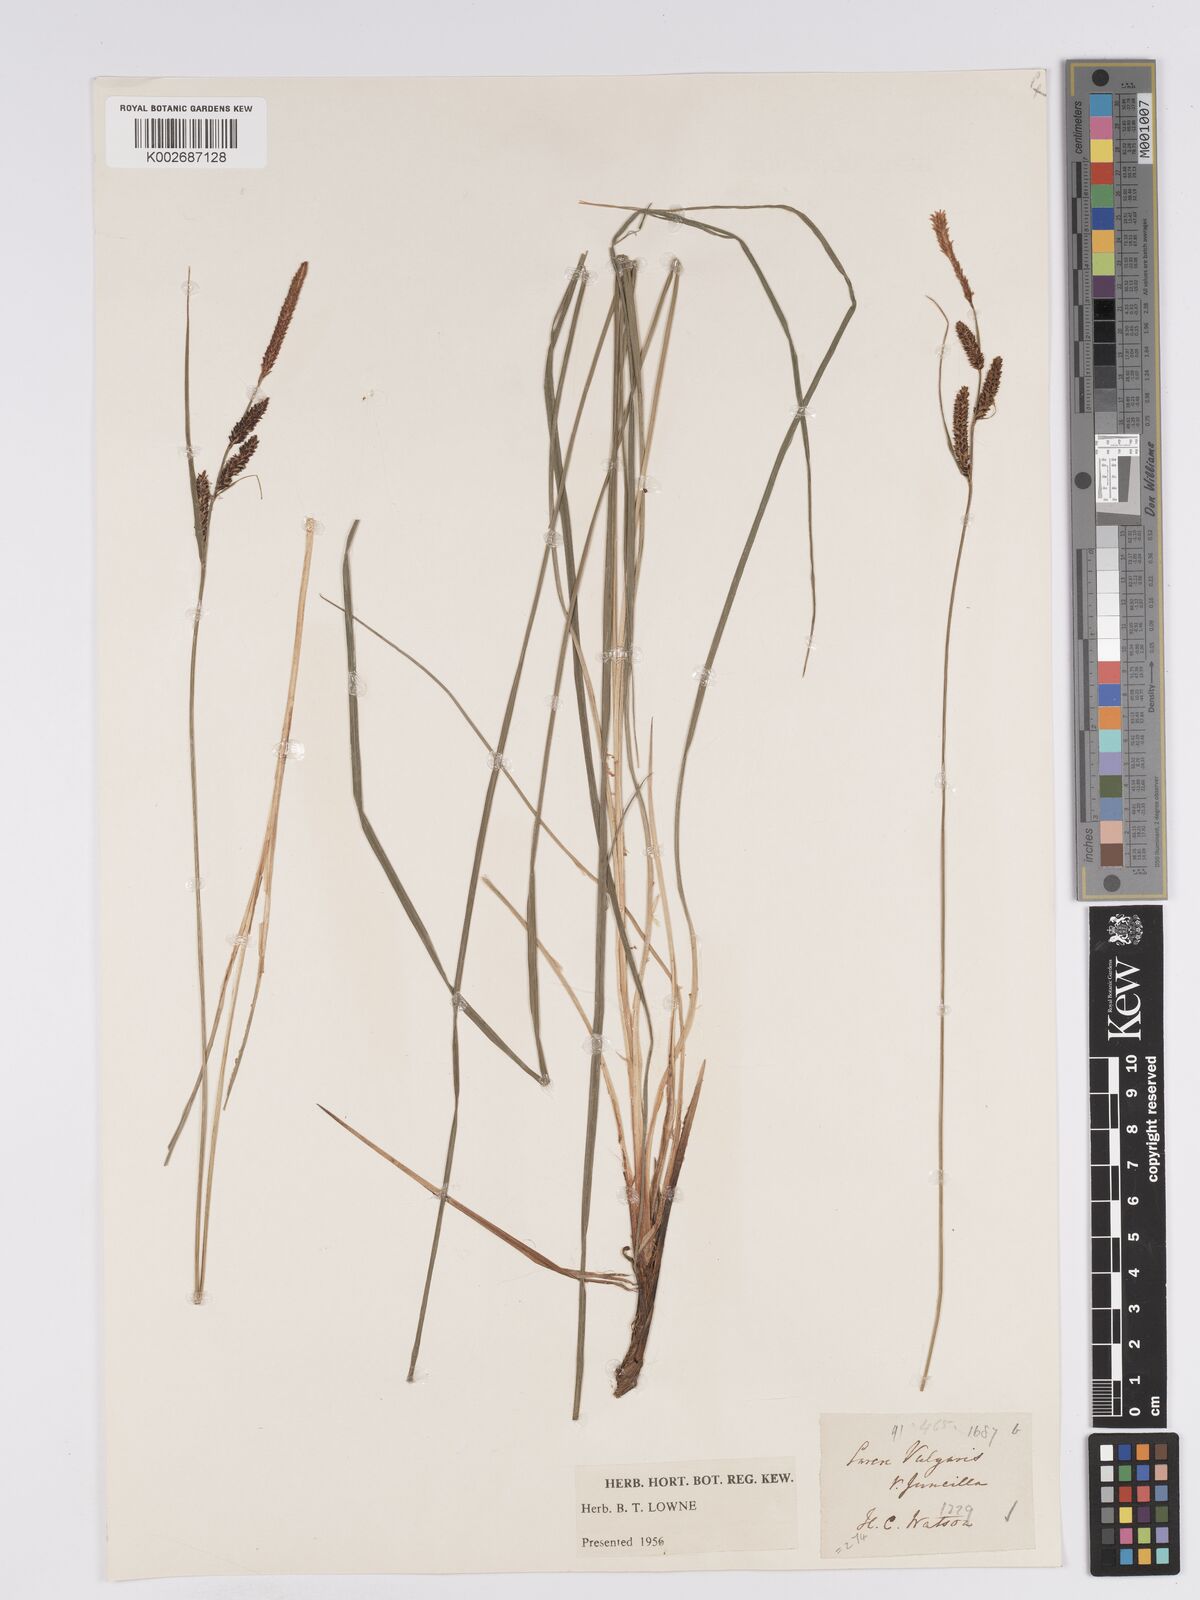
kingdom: Plantae
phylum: Tracheophyta
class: Liliopsida
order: Poales
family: Cyperaceae
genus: Carex
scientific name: Carex nigra
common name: Common sedge
